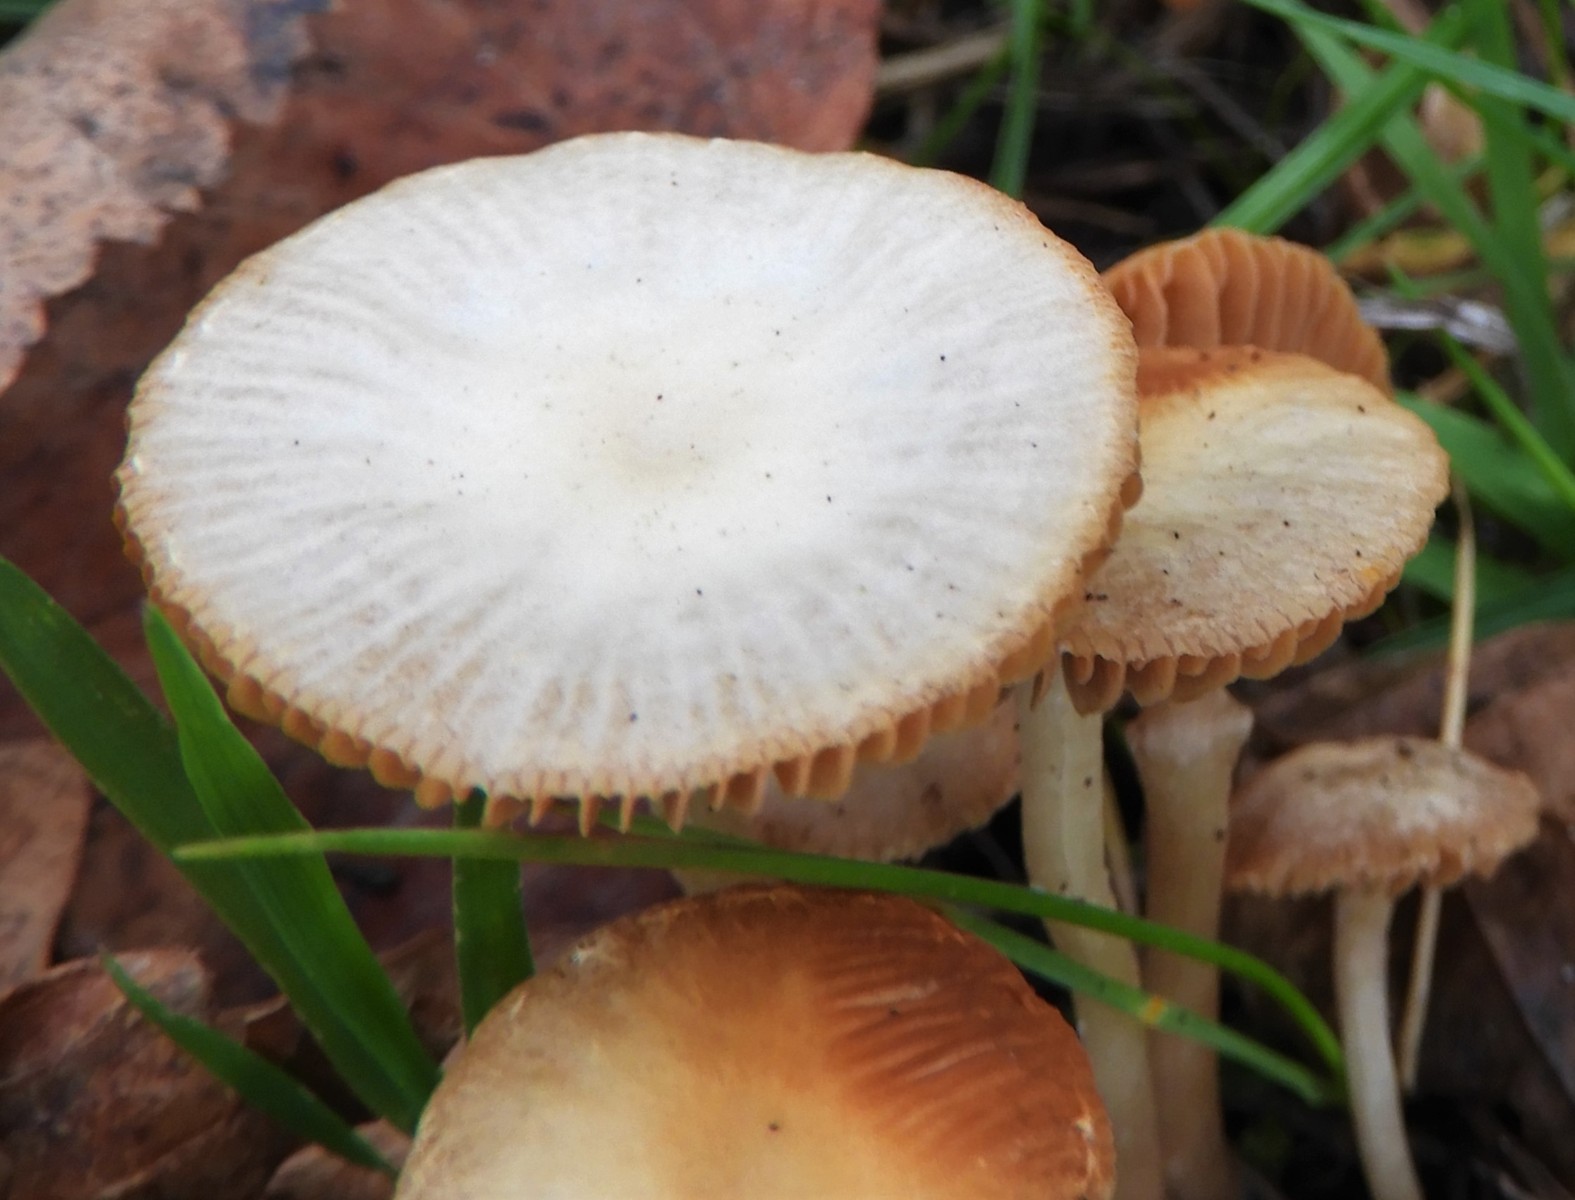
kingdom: Fungi
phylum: Basidiomycota
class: Agaricomycetes
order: Agaricales
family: Tubariaceae
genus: Tubaria
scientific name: Tubaria furfuracea
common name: kliddet fnughat
